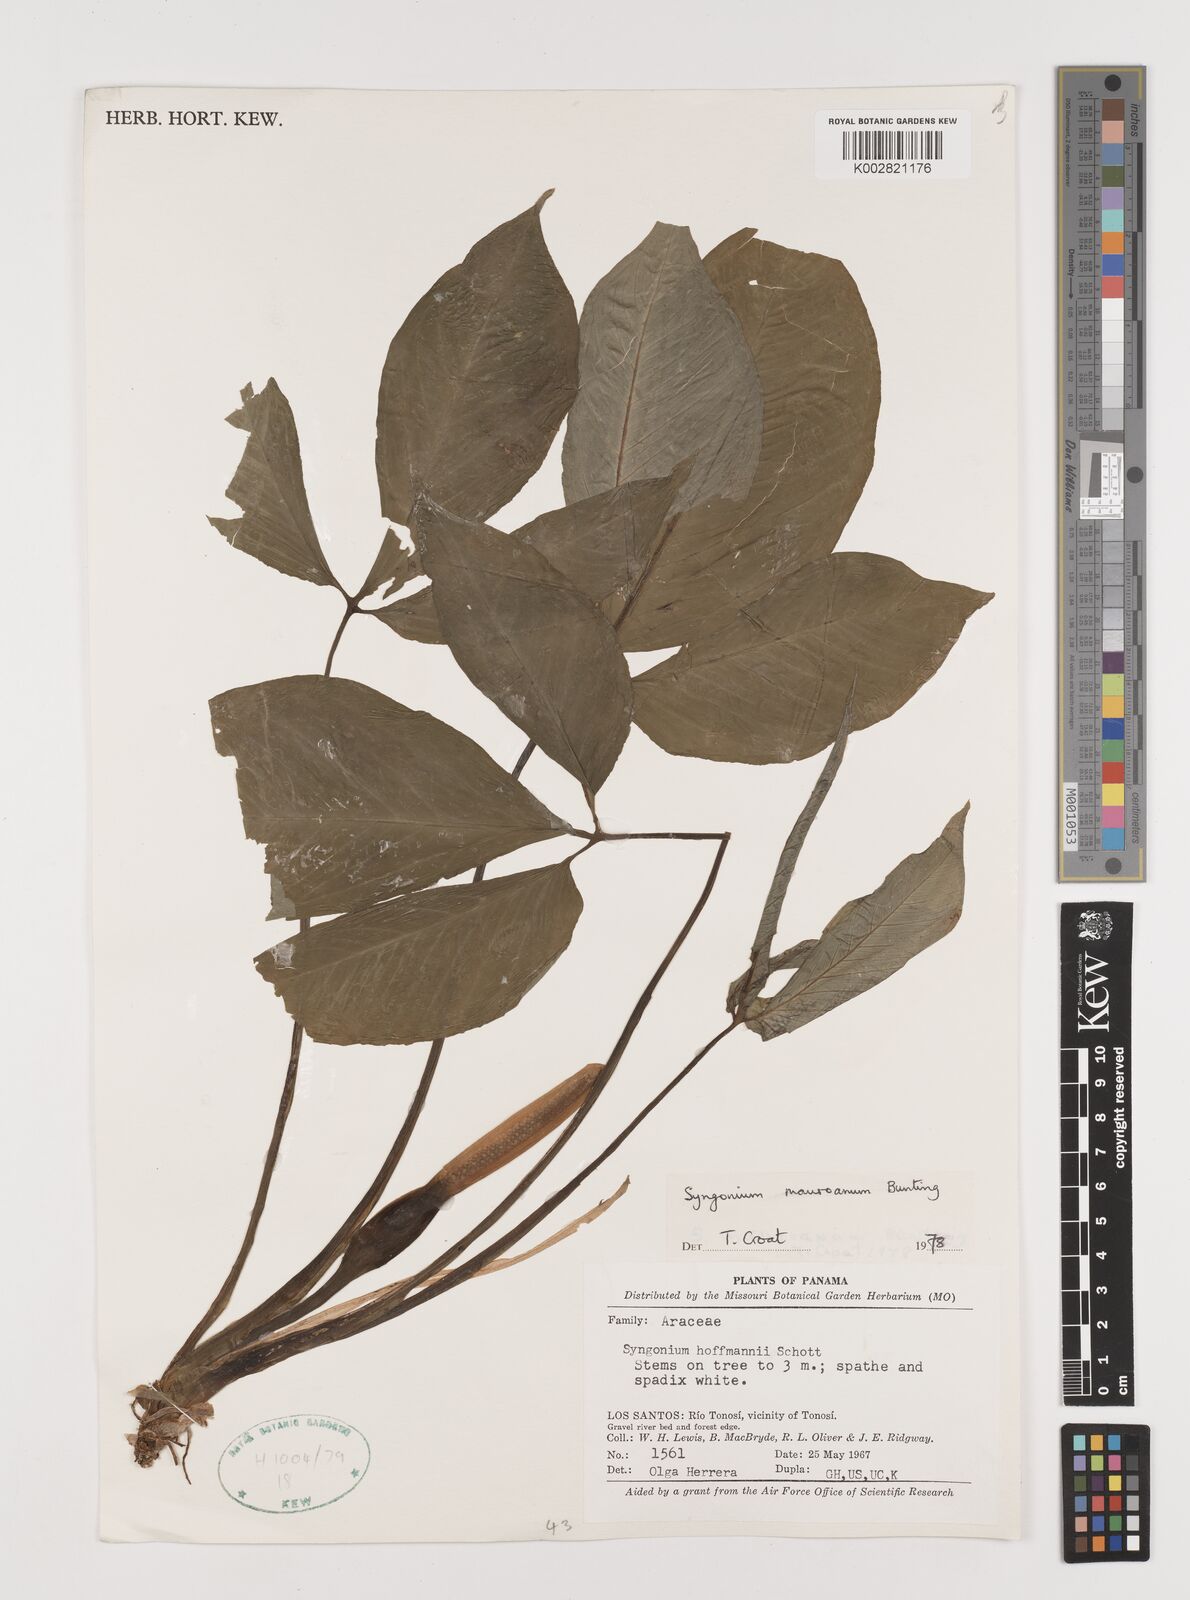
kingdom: Plantae
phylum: Tracheophyta
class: Liliopsida
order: Alismatales
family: Araceae
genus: Syngonium
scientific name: Syngonium mauroanum
